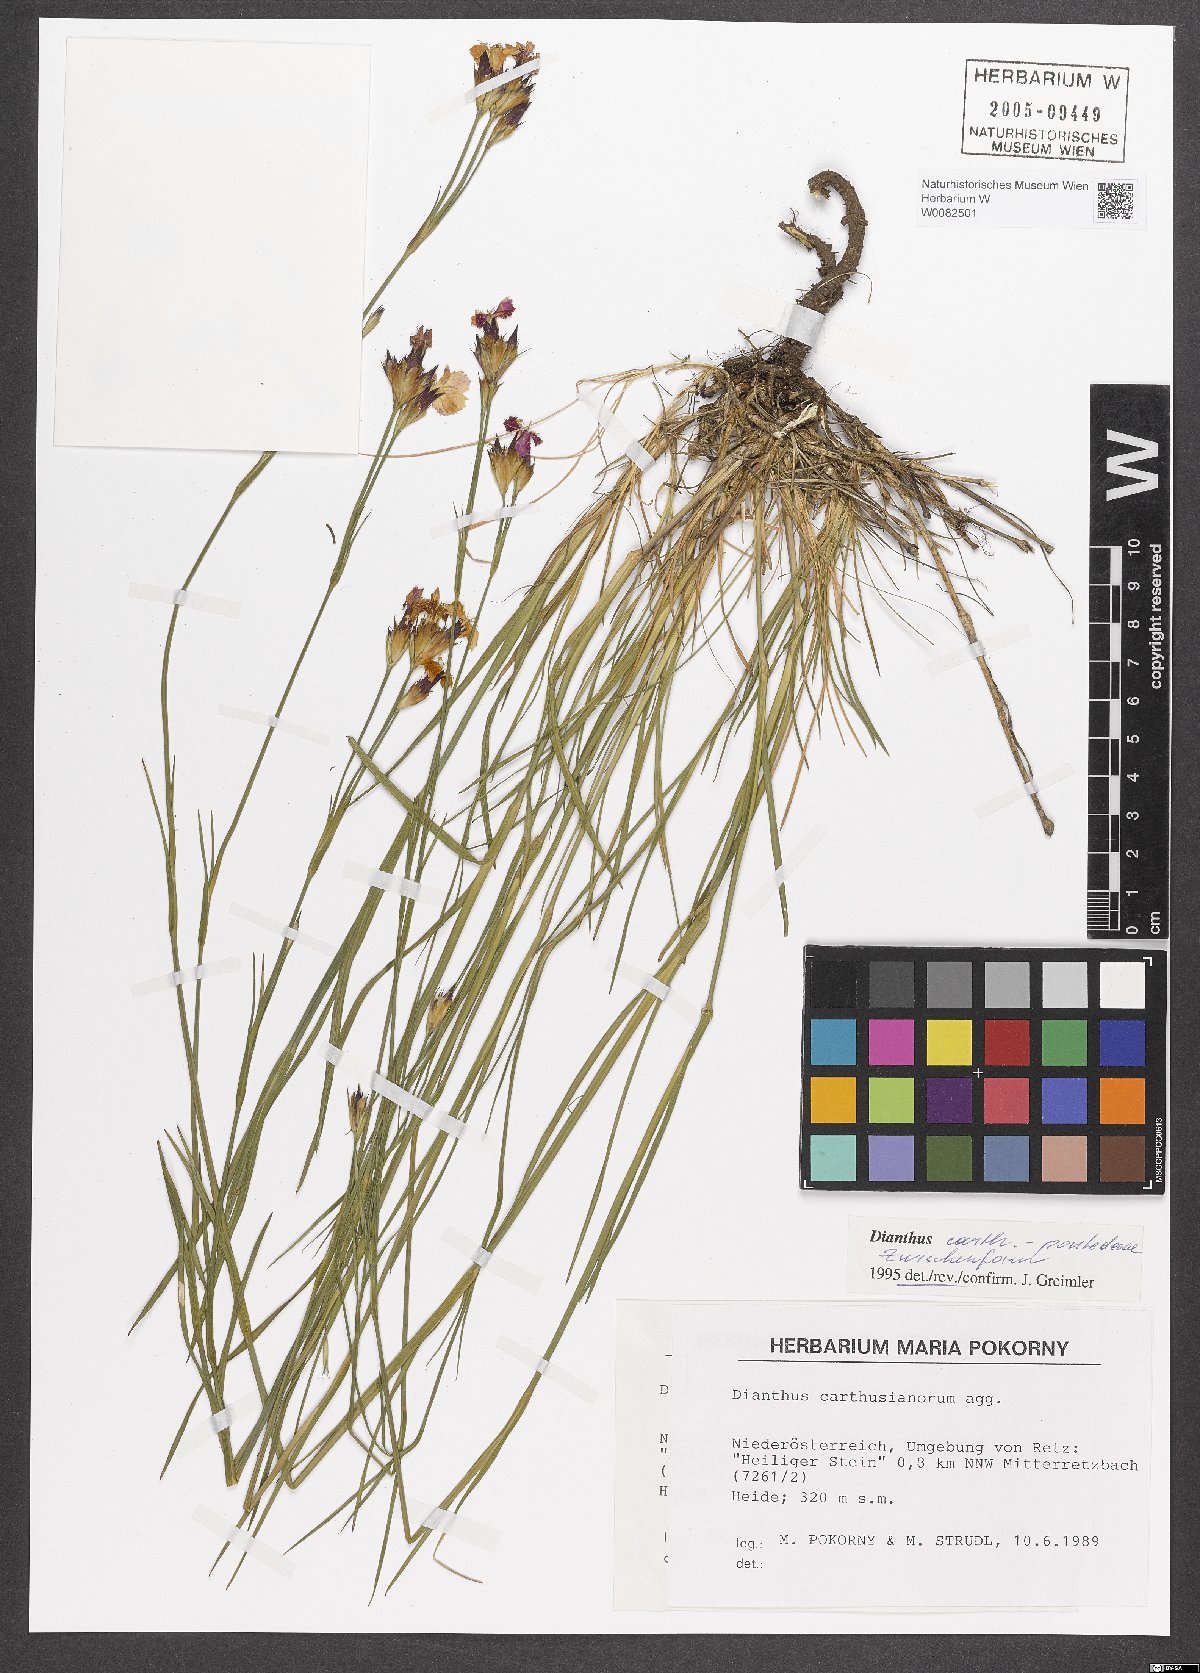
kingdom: Plantae
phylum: Tracheophyta
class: Magnoliopsida
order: Caryophyllales
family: Caryophyllaceae
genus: Dianthus
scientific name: Dianthus carthusianorum
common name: Carthusian pink
